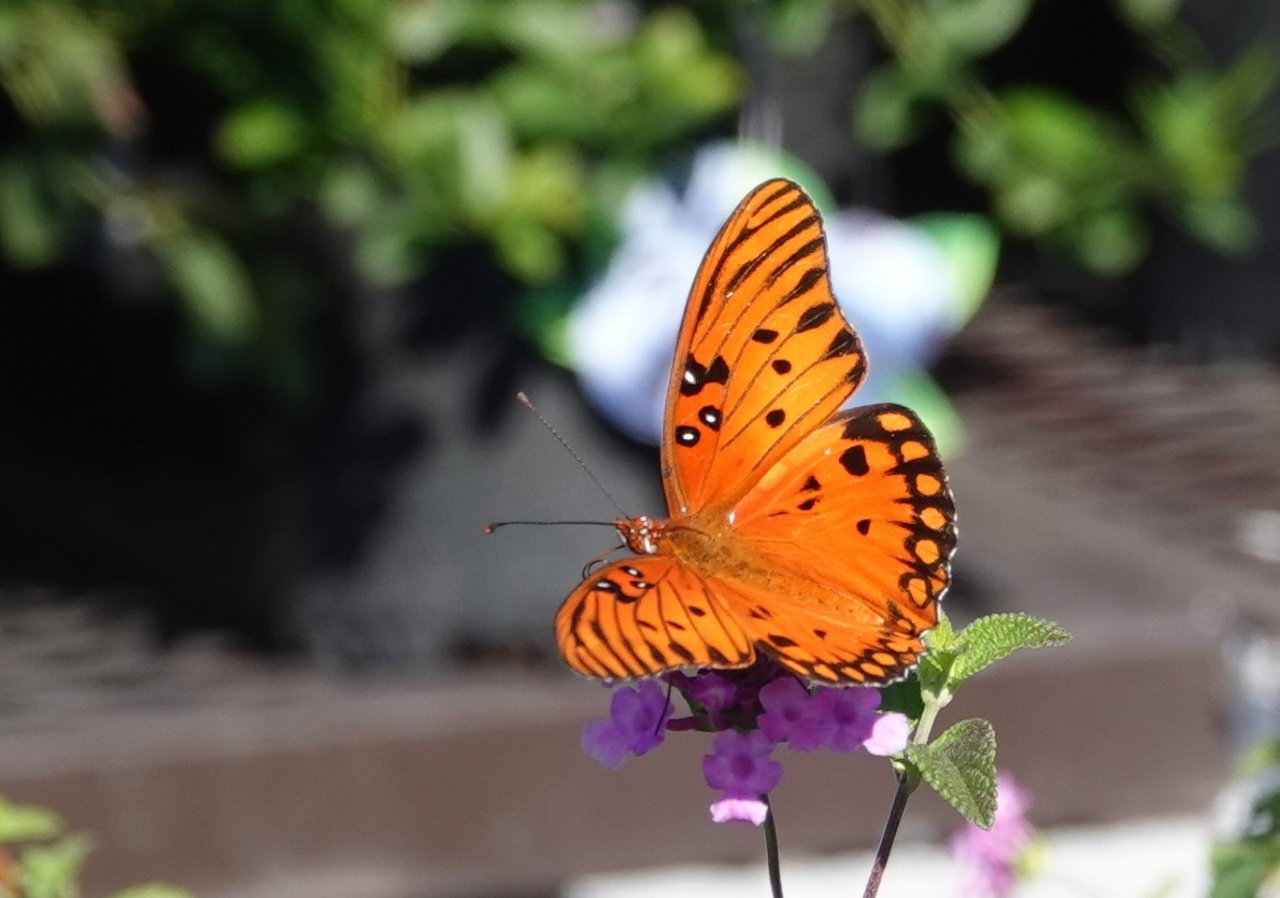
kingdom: Animalia
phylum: Arthropoda
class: Insecta
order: Lepidoptera
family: Nymphalidae
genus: Dione
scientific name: Dione vanillae
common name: Gulf Fritillary
